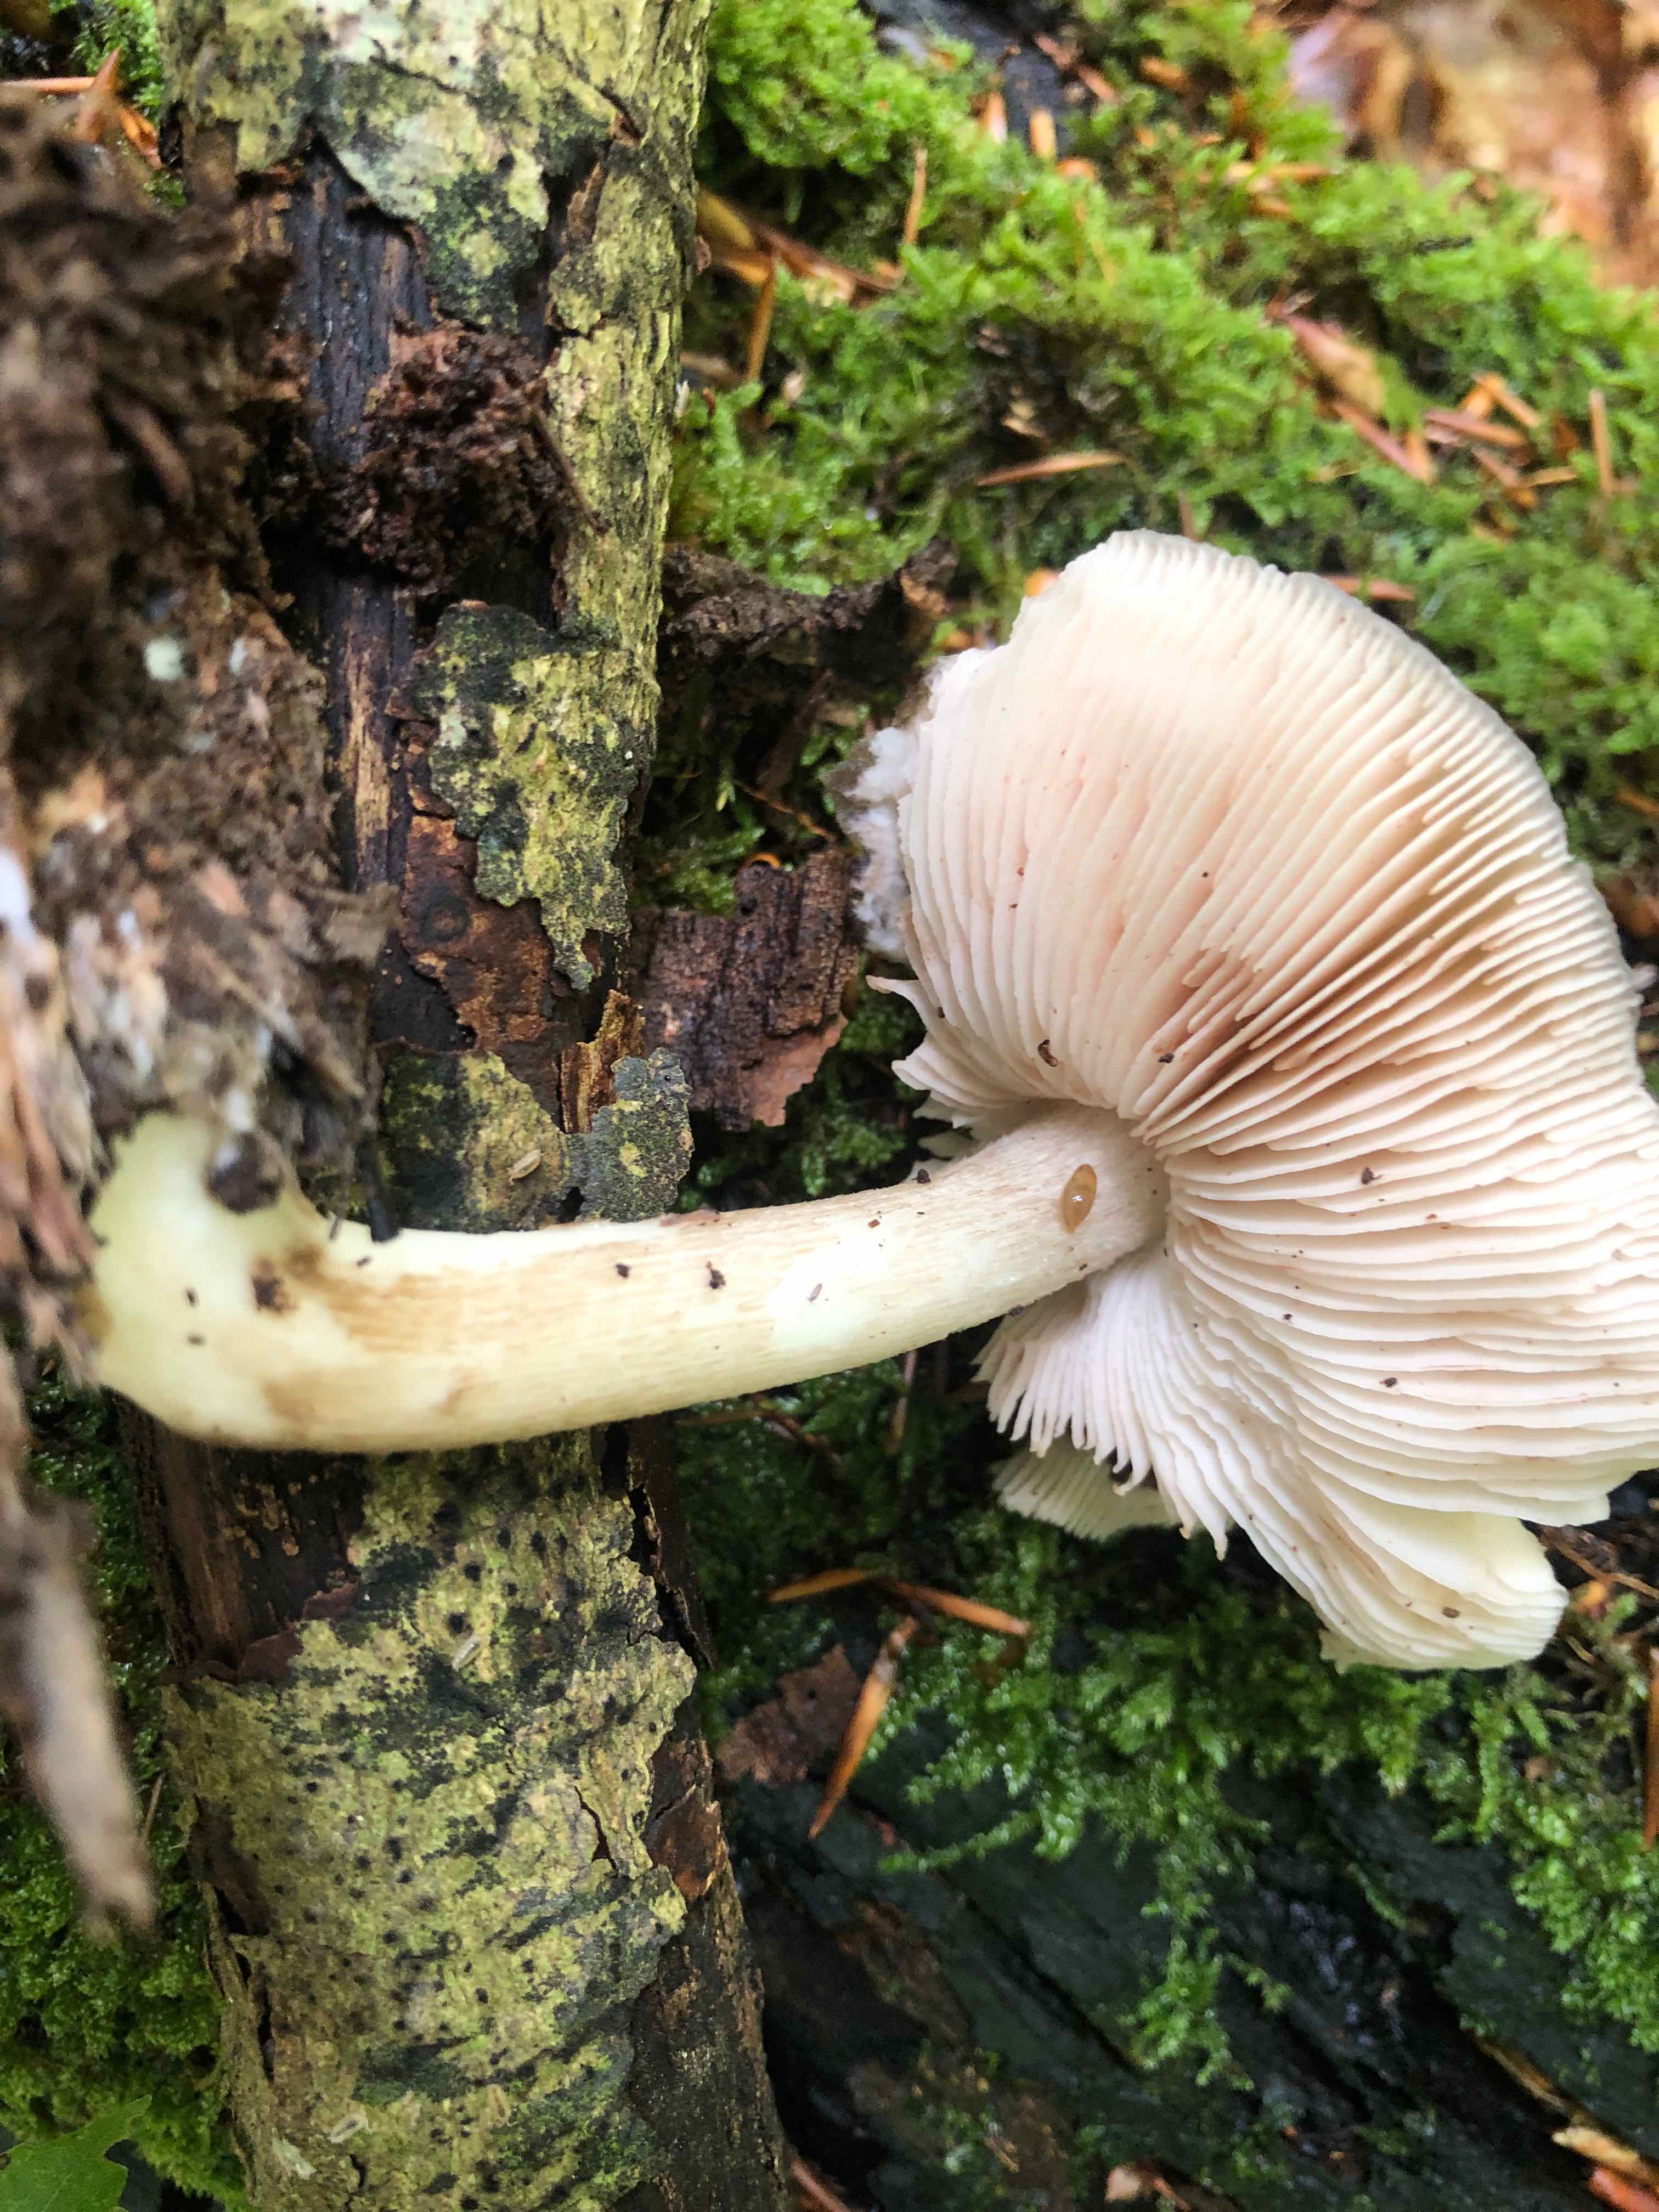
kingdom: Fungi
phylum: Basidiomycota
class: Agaricomycetes
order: Agaricales
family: Pluteaceae
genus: Pluteus
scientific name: Pluteus cervinus
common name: sodfarvet skærmhat
